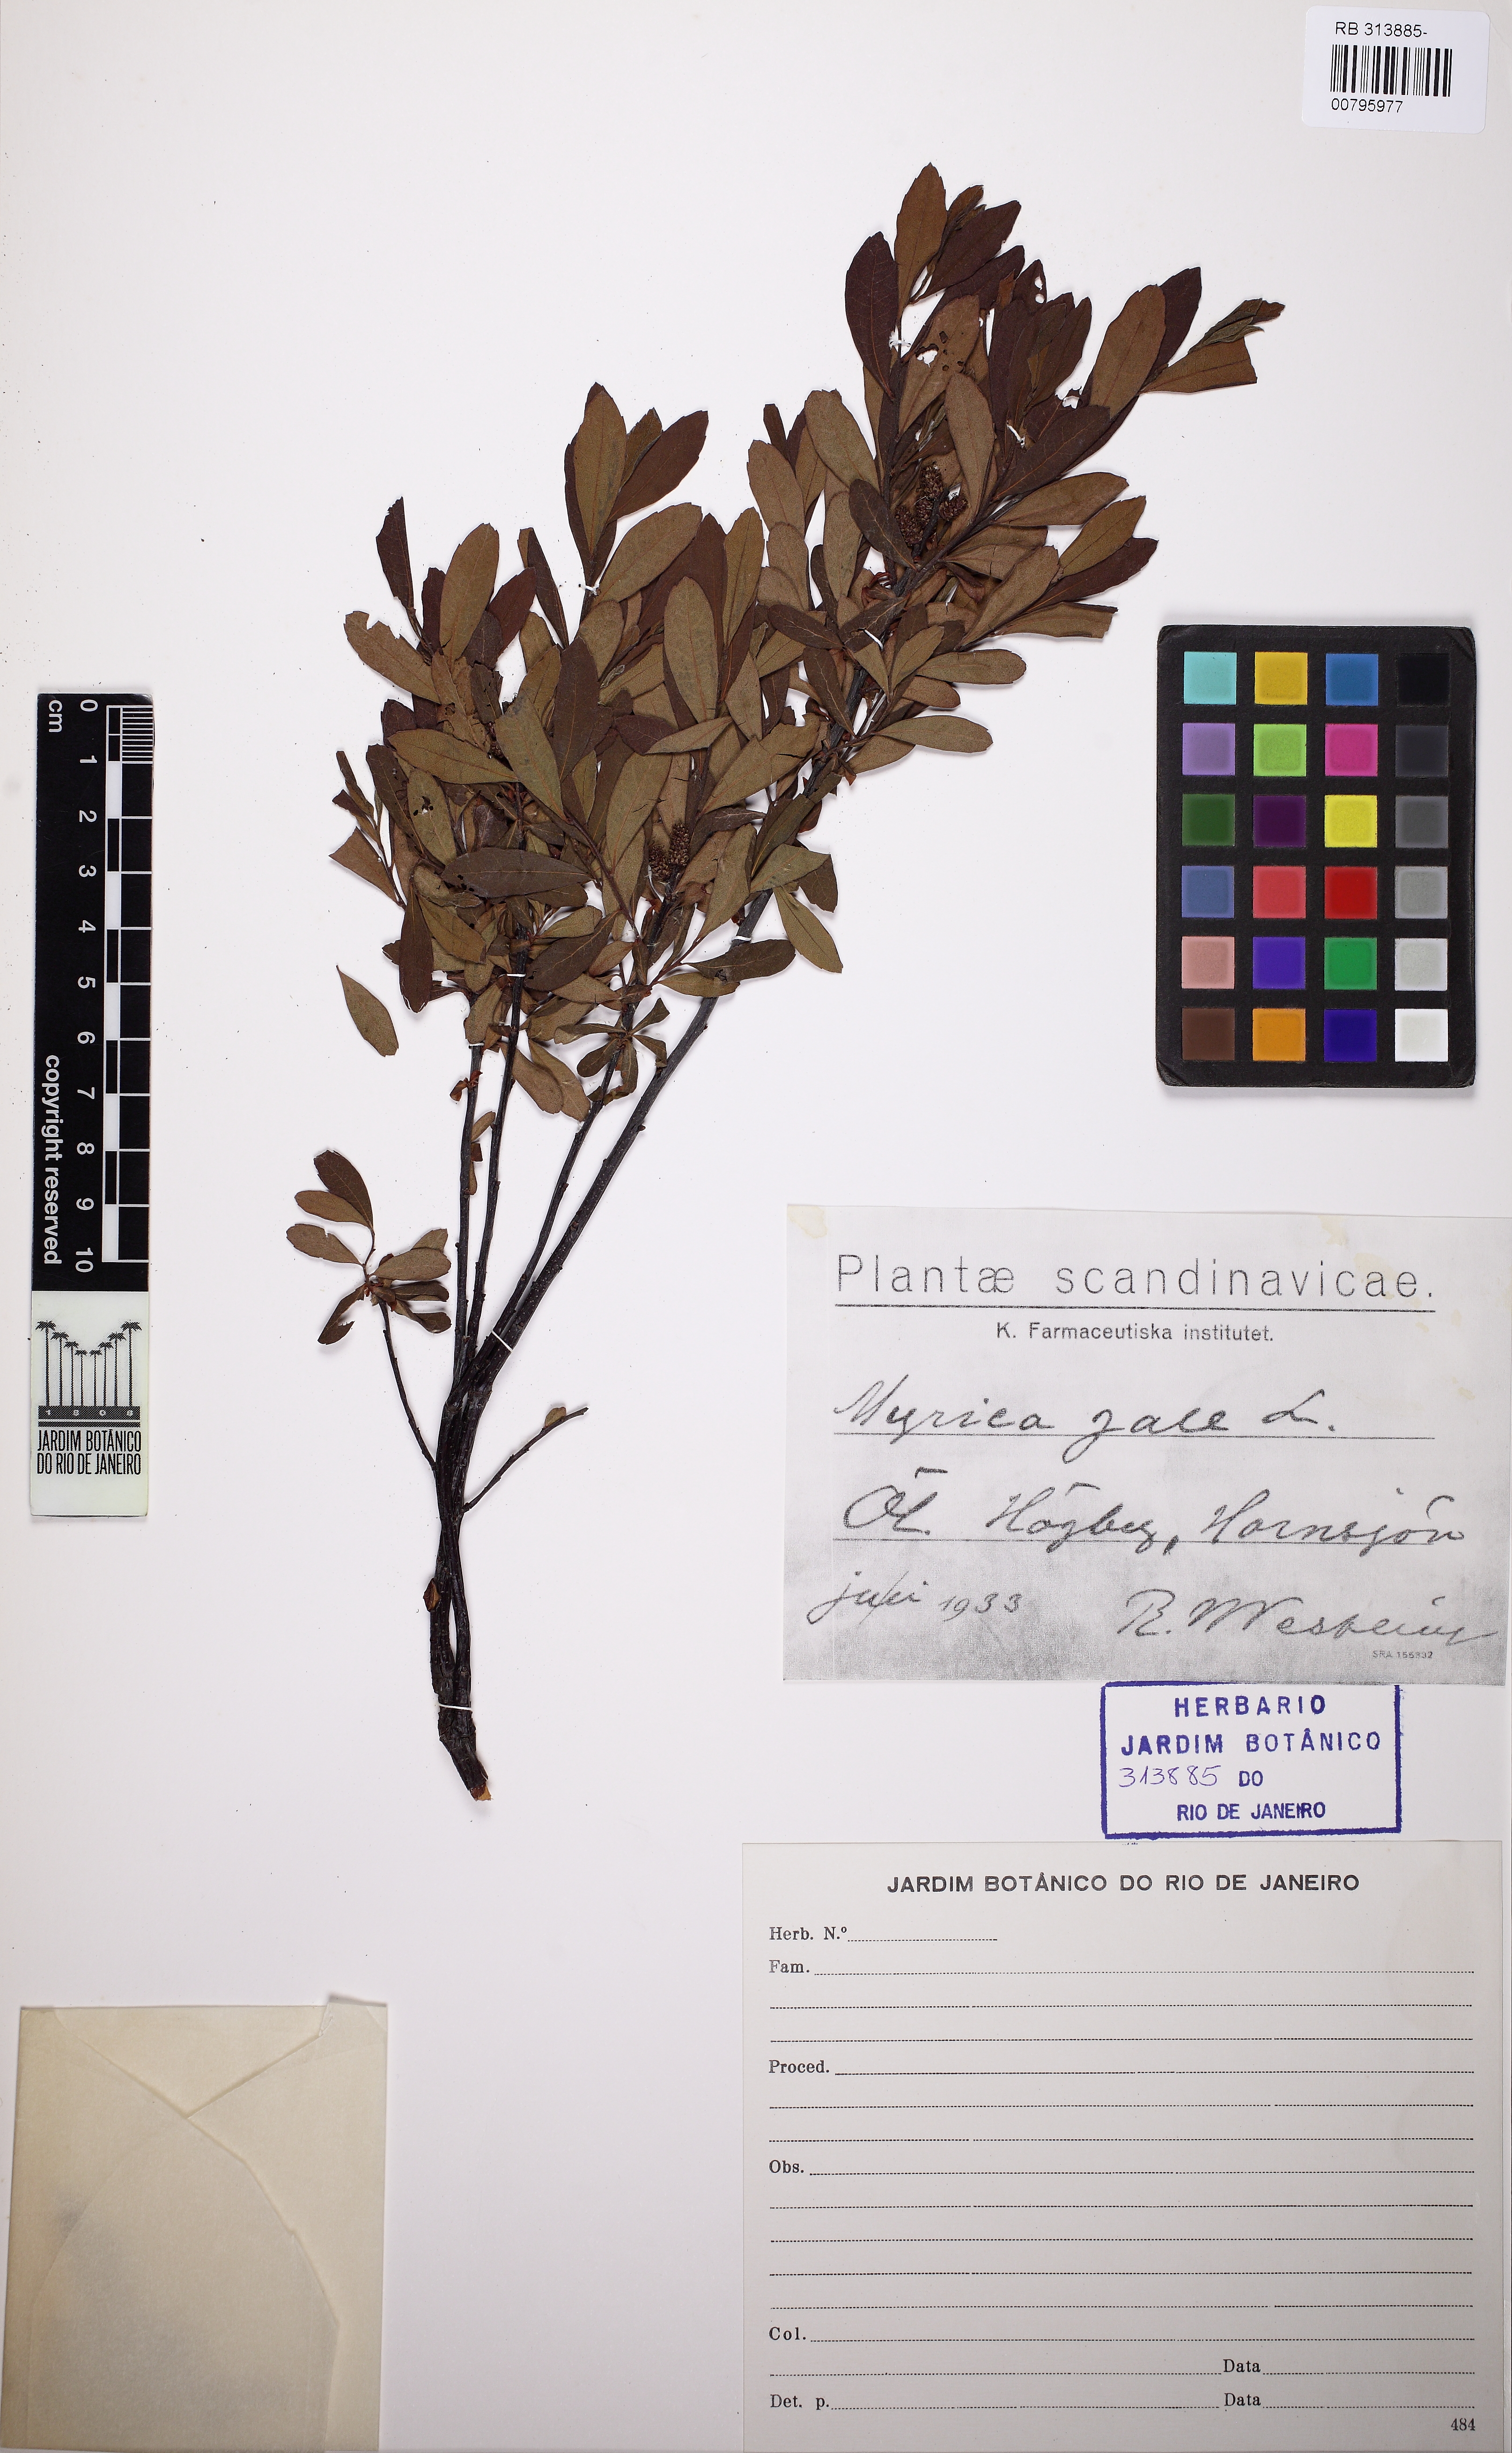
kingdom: Plantae
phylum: Tracheophyta
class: Magnoliopsida
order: Fagales
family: Myricaceae
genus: Myrica
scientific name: Myrica gale
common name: Sweet gale
